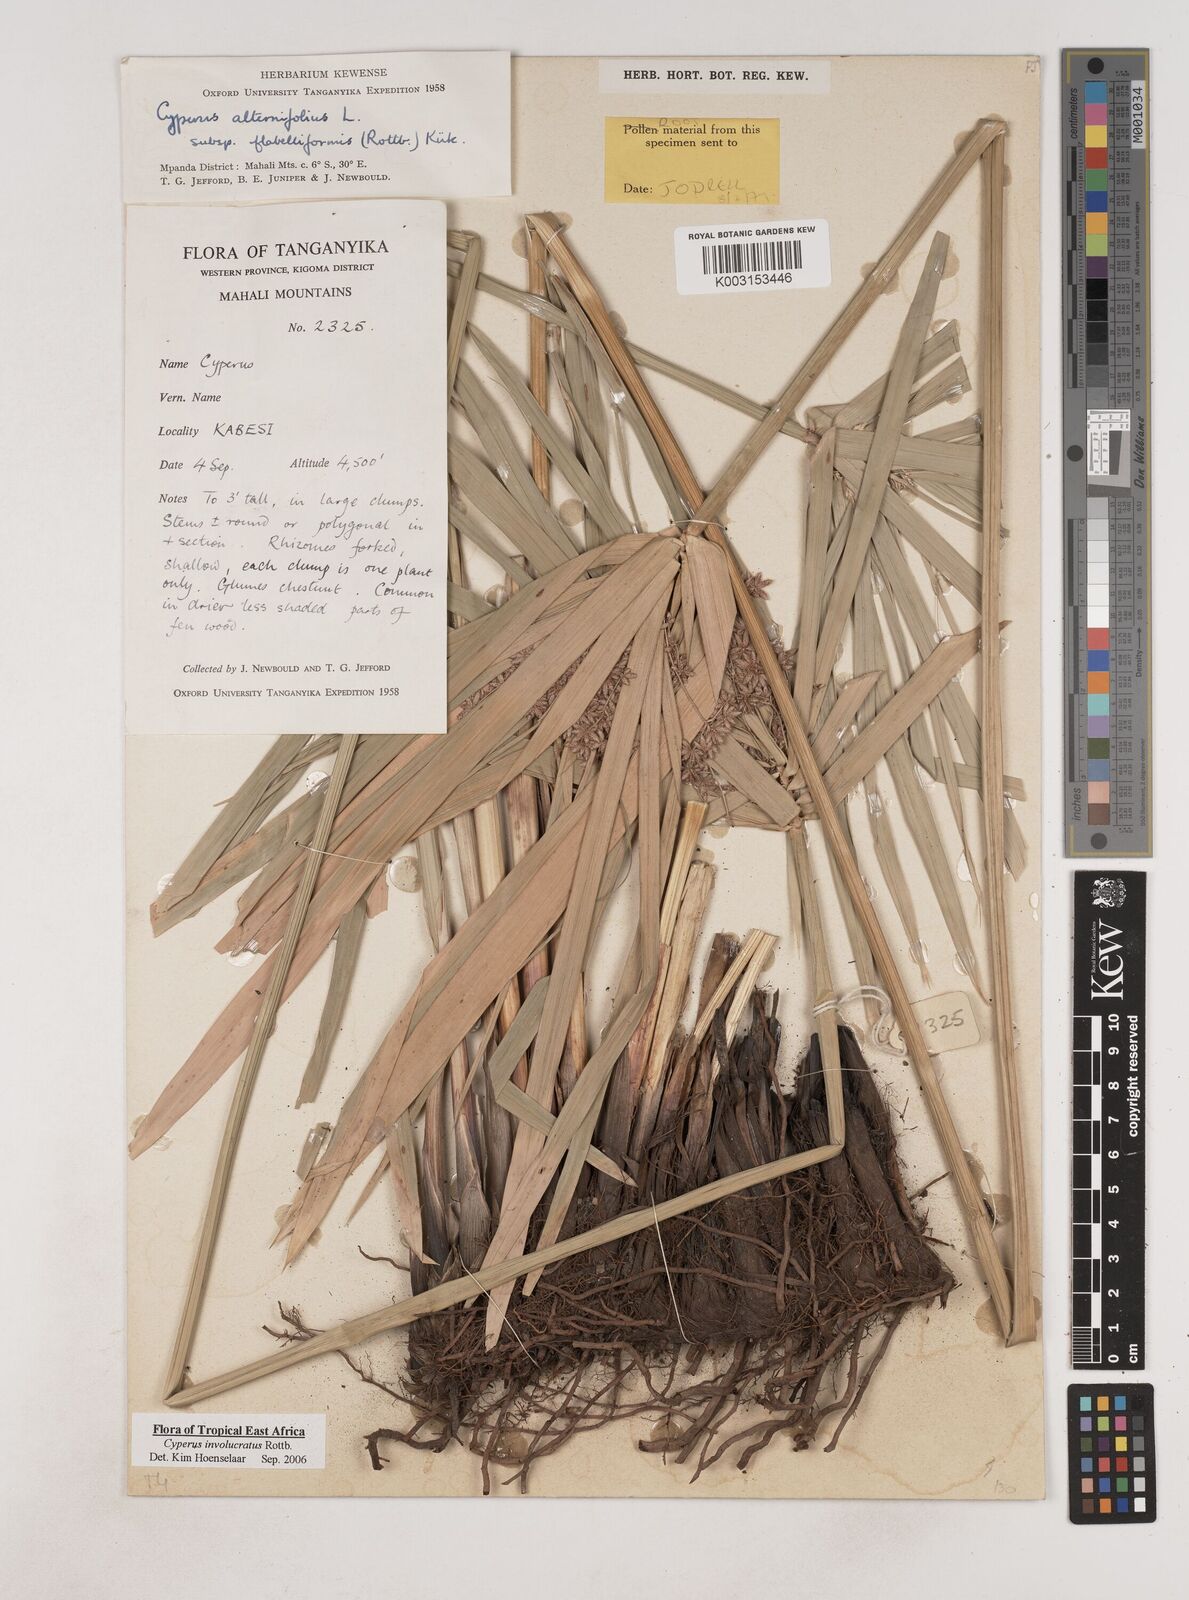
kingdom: Plantae
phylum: Tracheophyta
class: Liliopsida
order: Poales
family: Cyperaceae
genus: Cyperus
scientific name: Cyperus alternifolius
